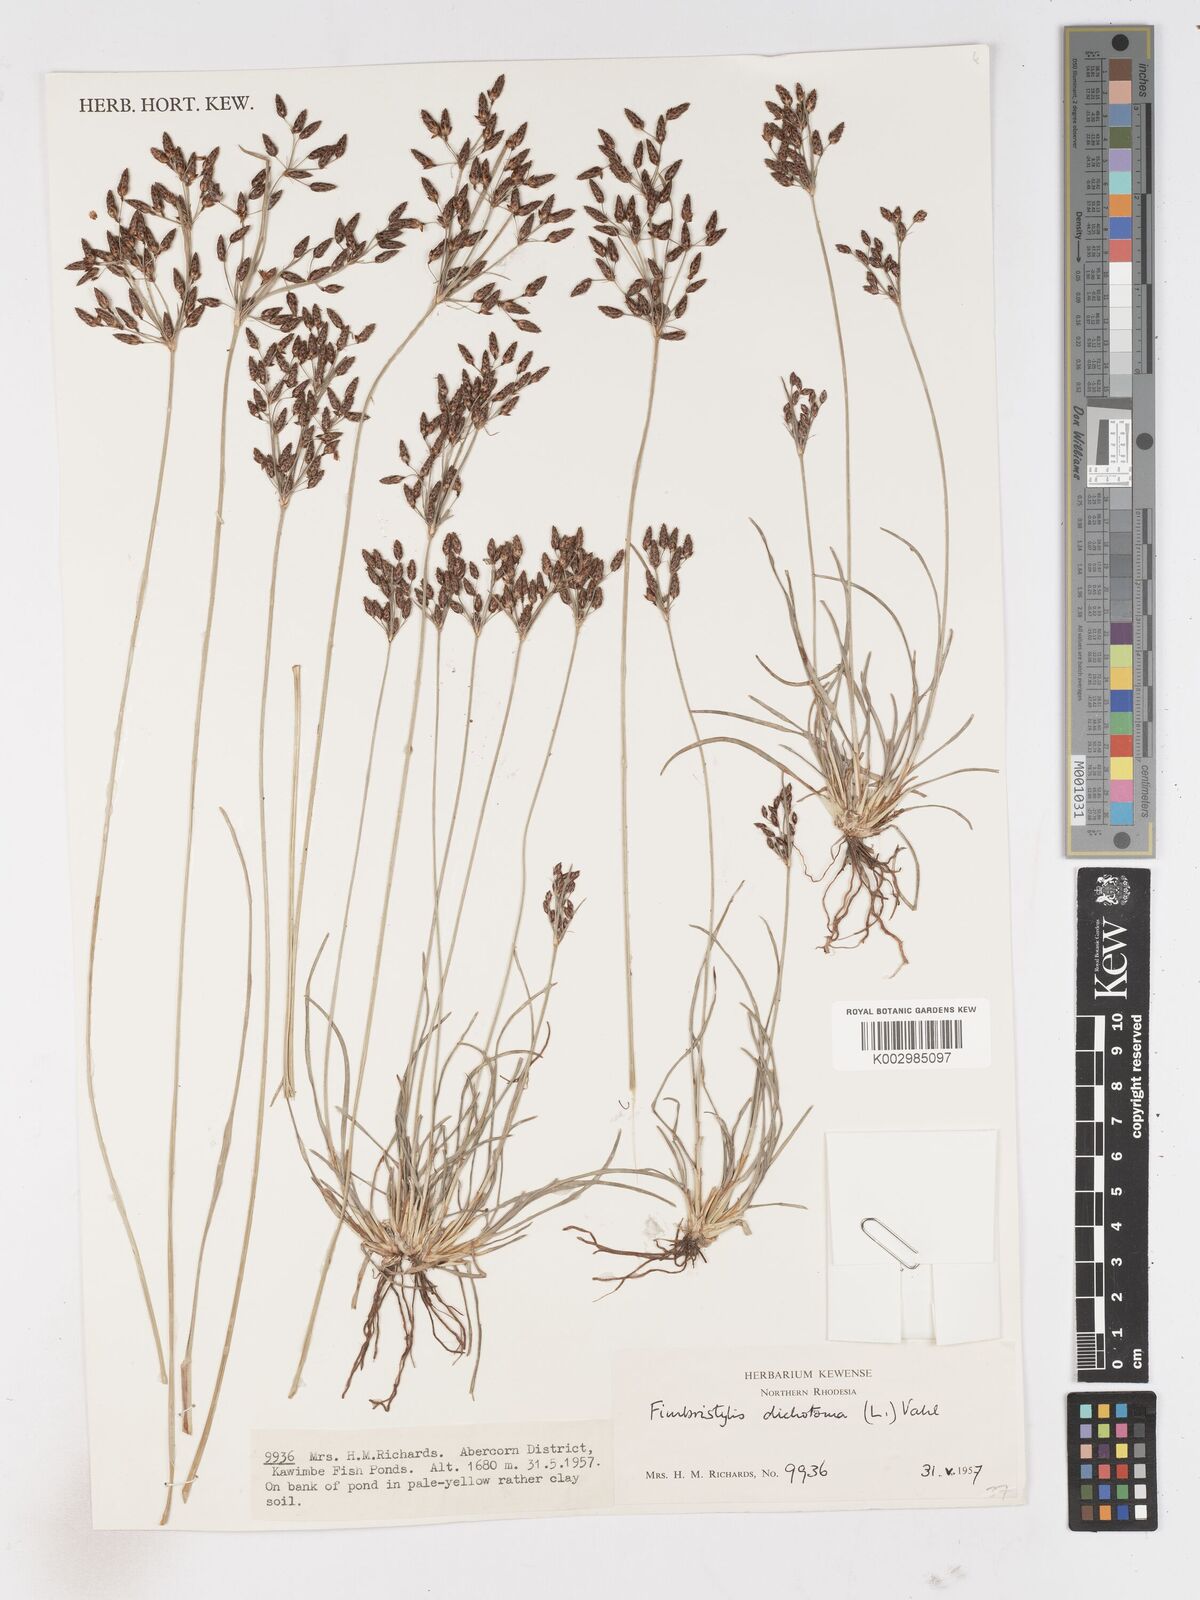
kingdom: Plantae
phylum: Tracheophyta
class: Liliopsida
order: Poales
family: Cyperaceae
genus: Fimbristylis
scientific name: Fimbristylis dichotoma
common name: Forked fimbry
